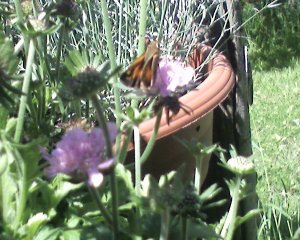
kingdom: Animalia
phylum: Arthropoda
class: Insecta
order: Lepidoptera
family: Hesperiidae
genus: Hesperia
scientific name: Hesperia sassacus
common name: Sassacus Skipper
